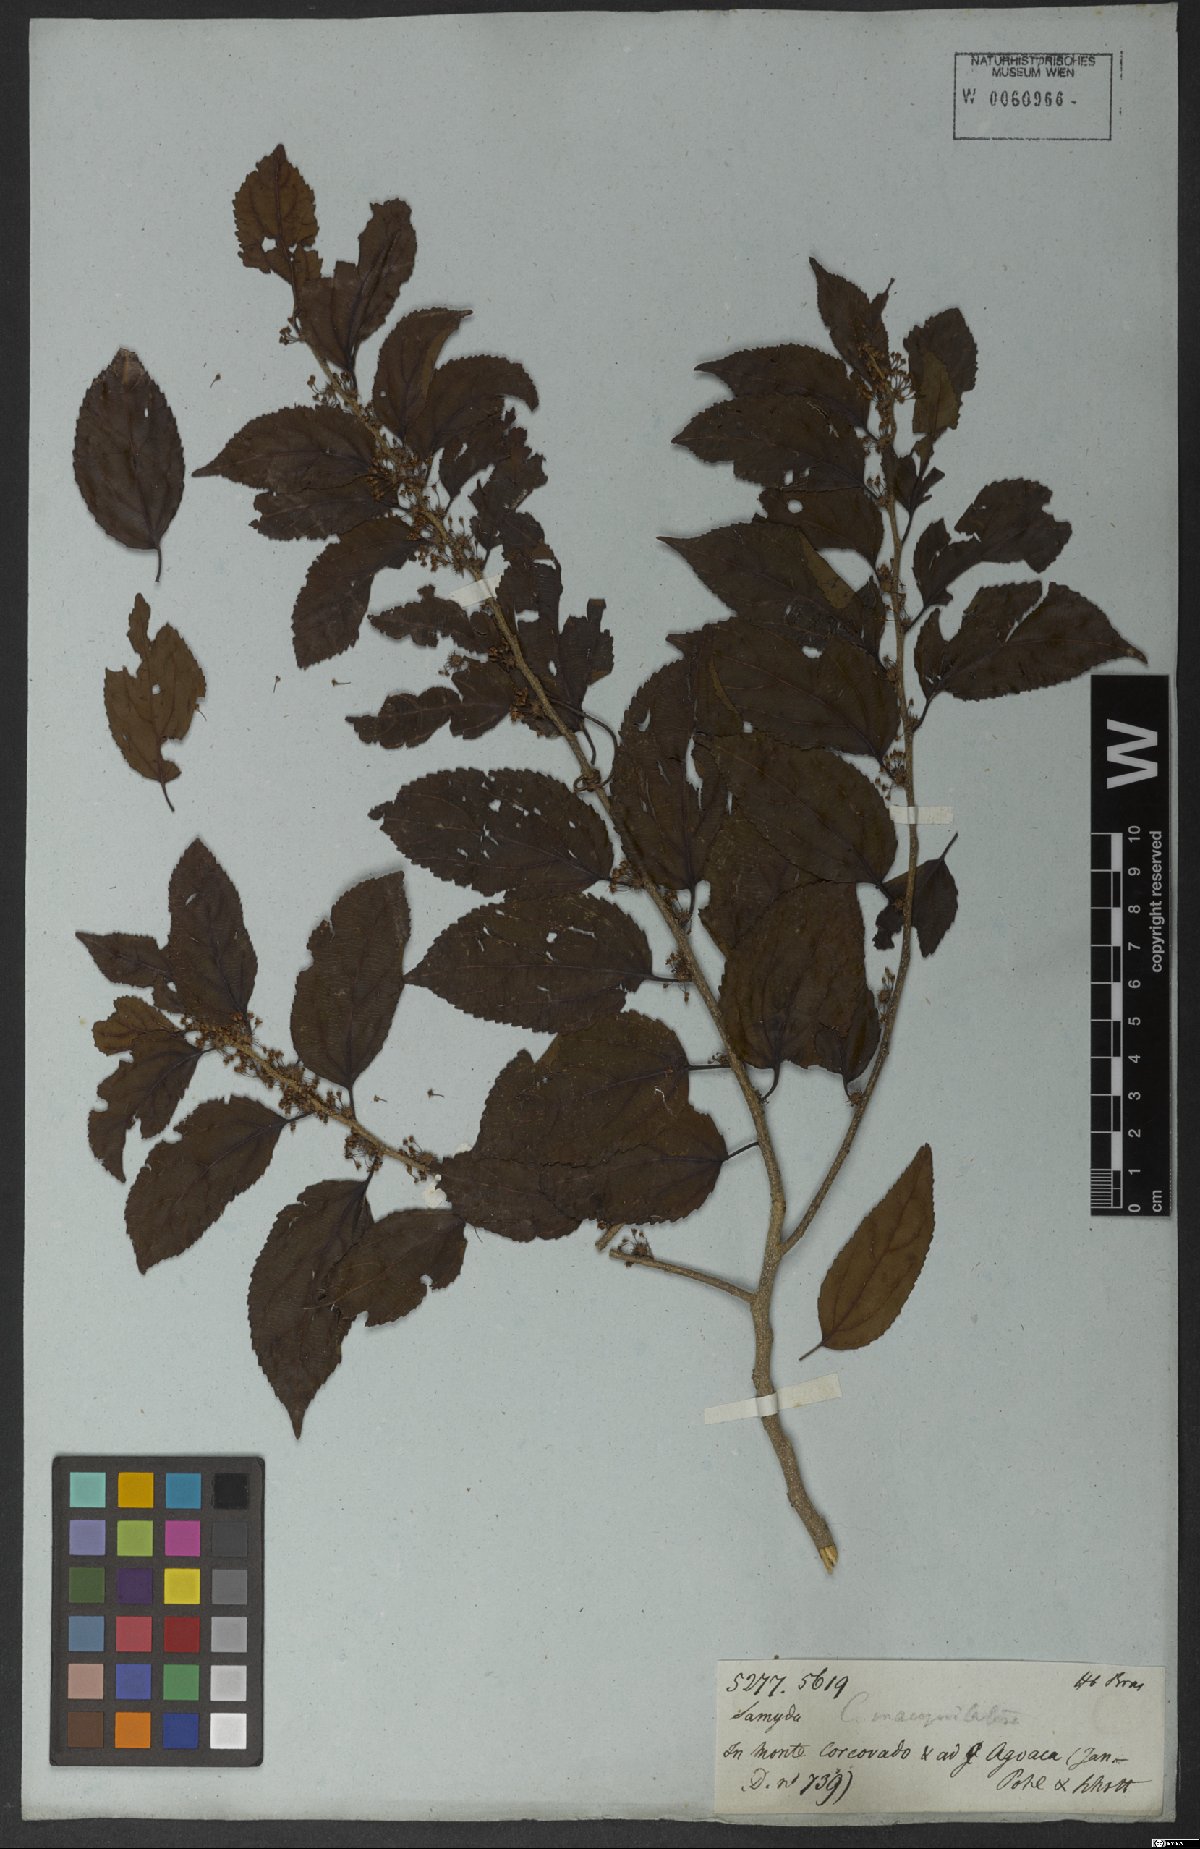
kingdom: Plantae
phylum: Tracheophyta
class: Magnoliopsida
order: Malpighiales
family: Salicaceae
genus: Casearia
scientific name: Casearia obliqua
